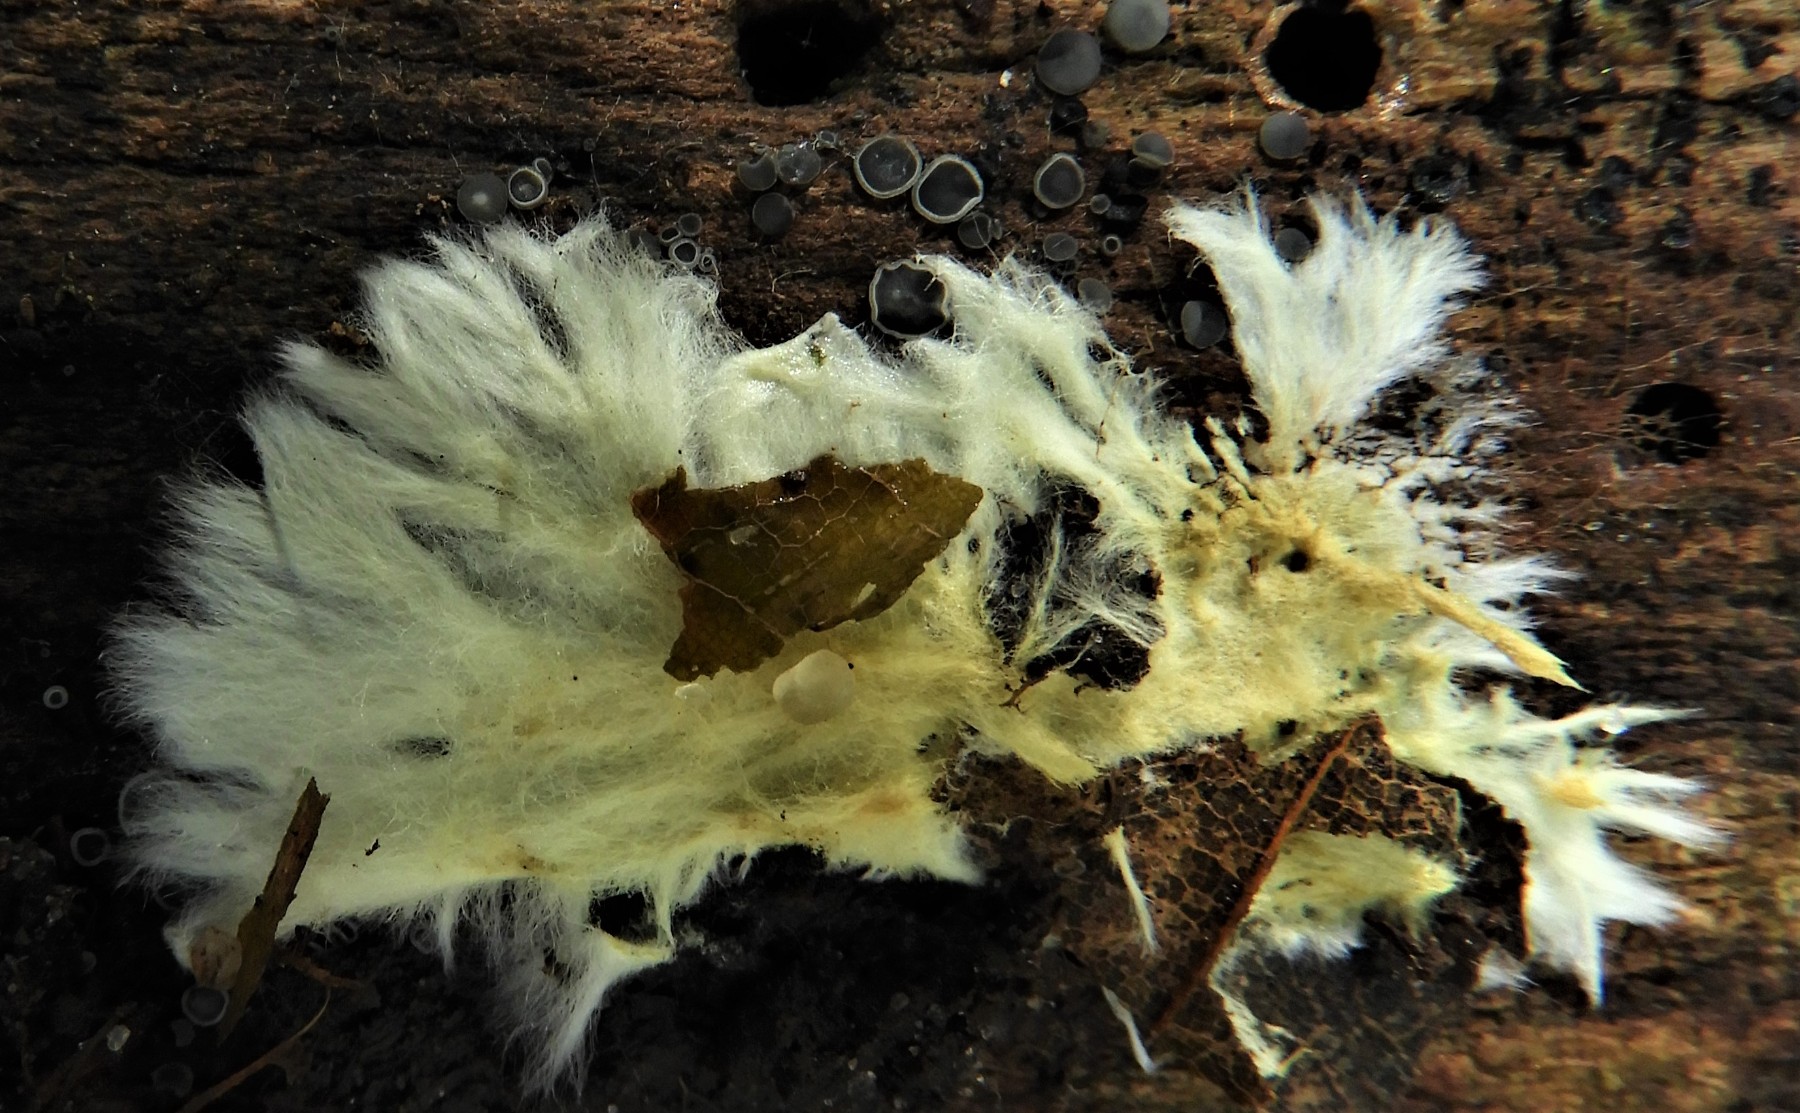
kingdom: Fungi
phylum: Basidiomycota
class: Agaricomycetes
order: Russulales
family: Xenasmataceae
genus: Xenasmatella
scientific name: Xenasmatella vaga
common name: svovl-strenghinde
